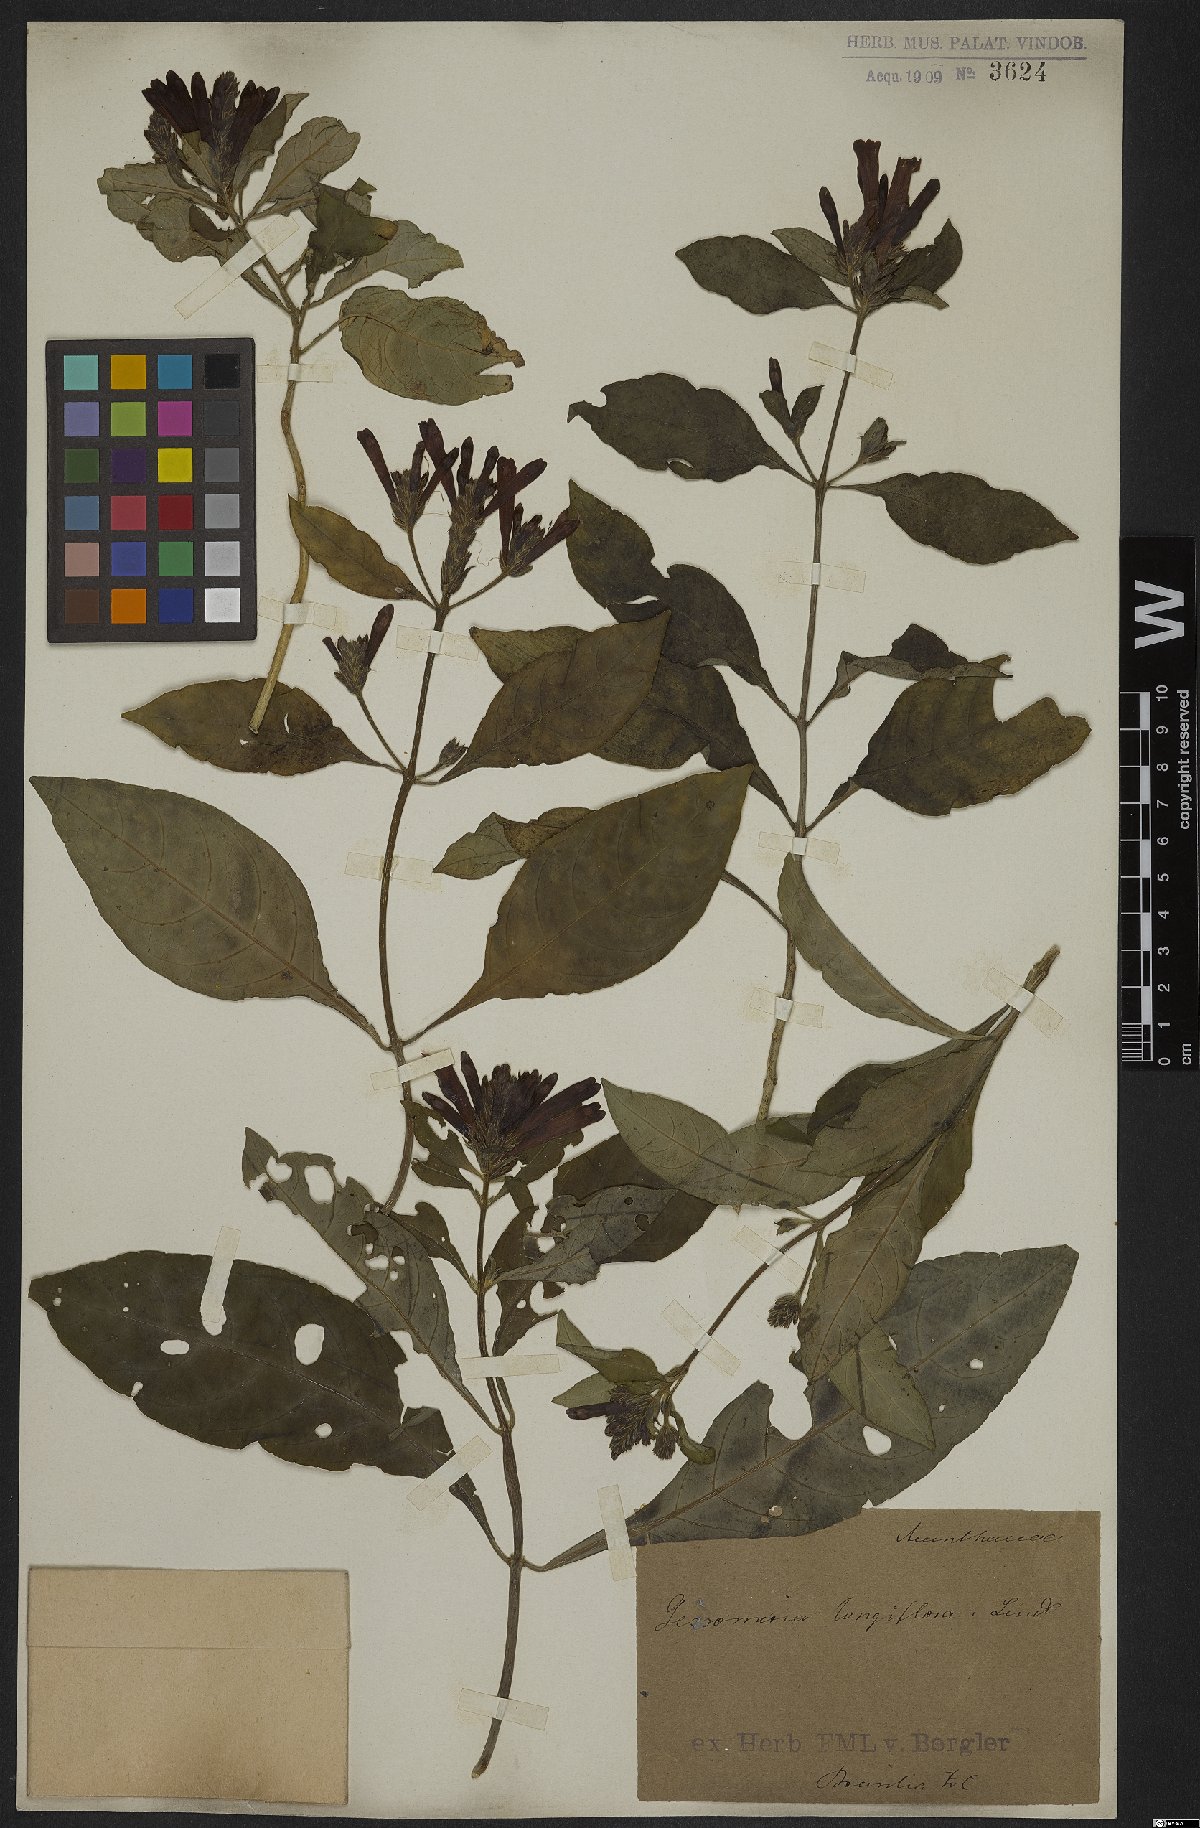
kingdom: Plantae
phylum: Tracheophyta
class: Magnoliopsida
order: Lamiales
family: Acanthaceae
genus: Aphelandra
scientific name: Aphelandra longiflora
